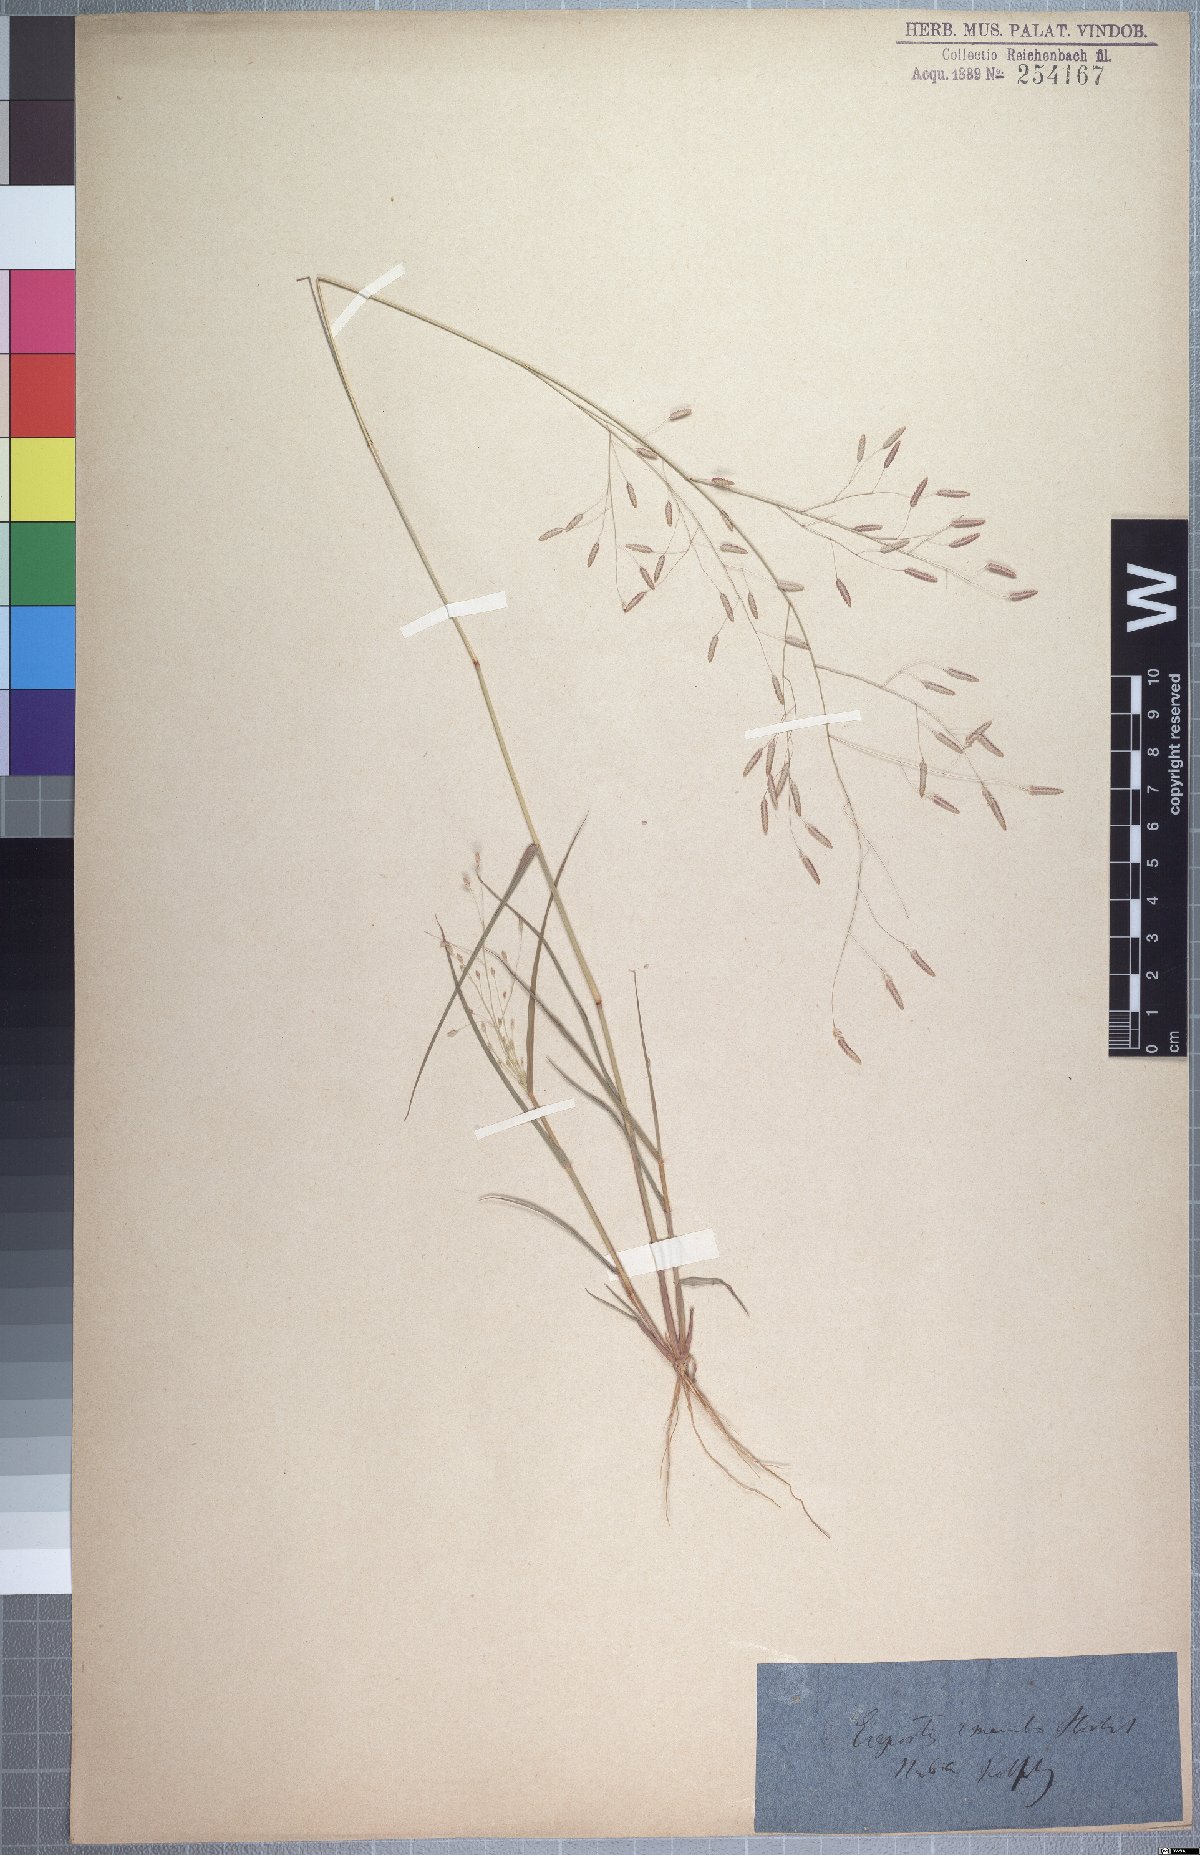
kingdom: Plantae
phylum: Tracheophyta
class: Liliopsida
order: Poales
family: Poaceae
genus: Eragrostis
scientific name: Eragrostis tremula
